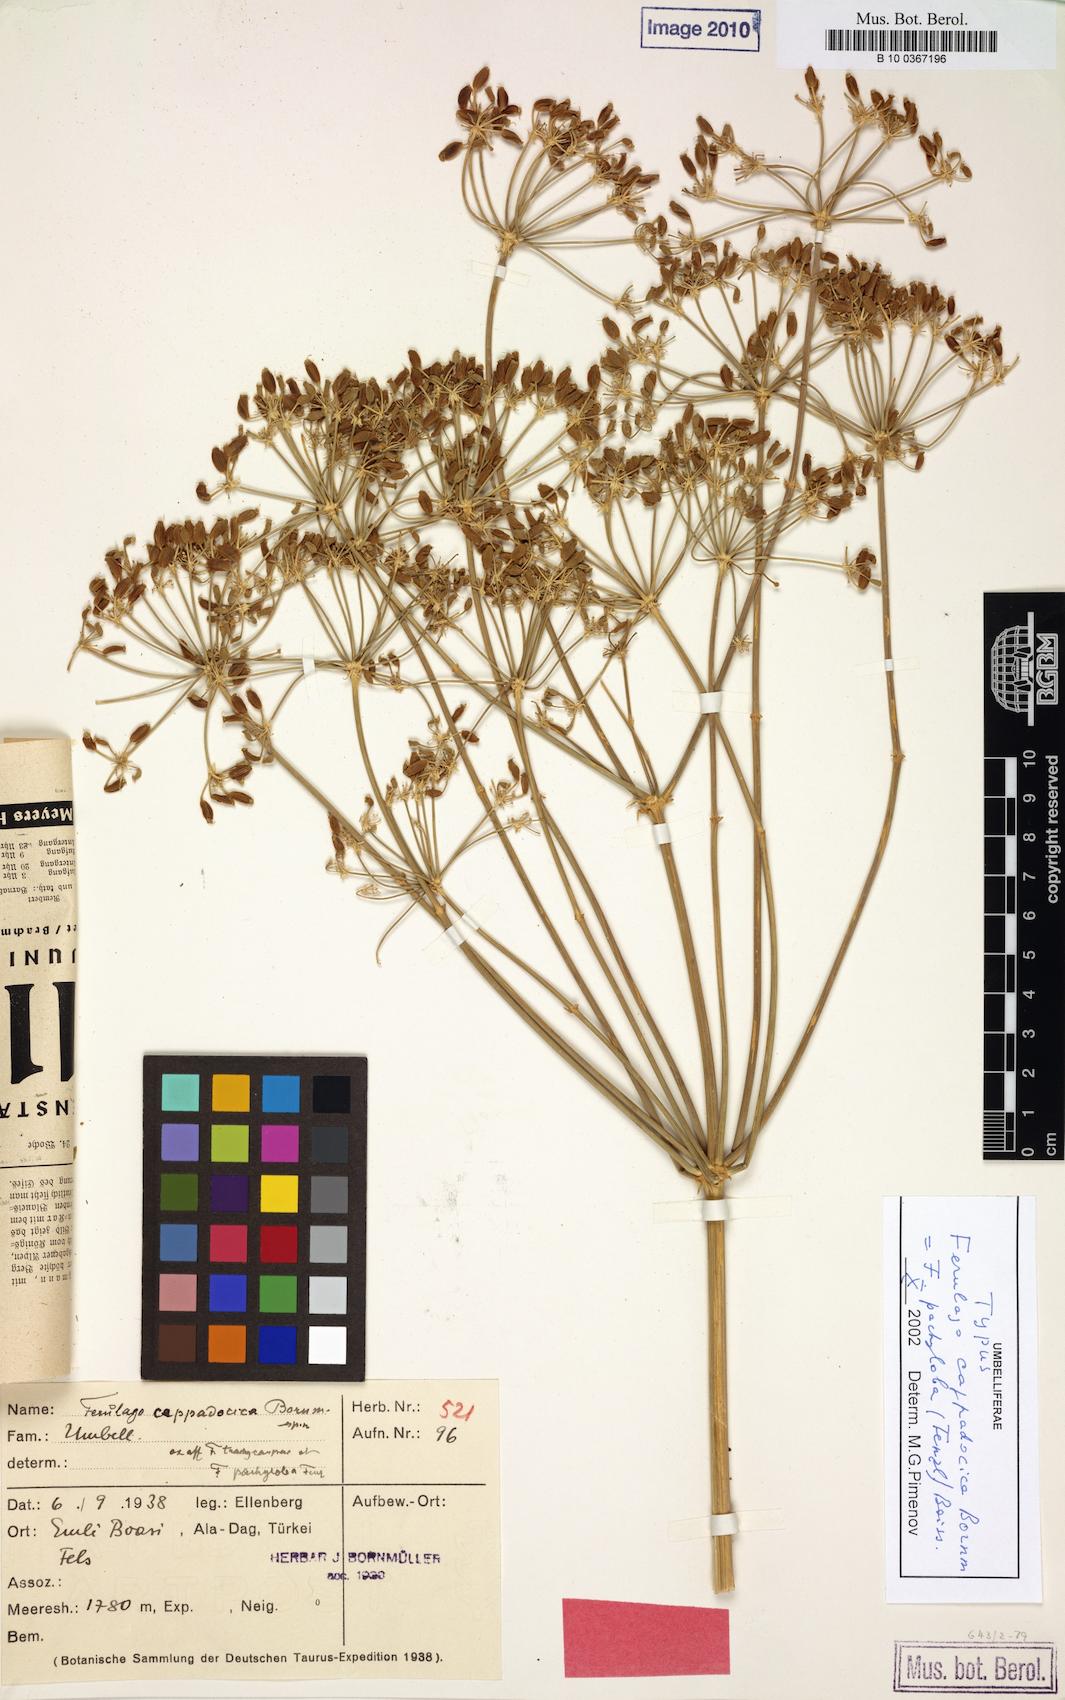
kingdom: Plantae
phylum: Tracheophyta
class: Magnoliopsida
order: Apiales
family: Apiaceae
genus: Ferulago
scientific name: Ferulago pachyloba
